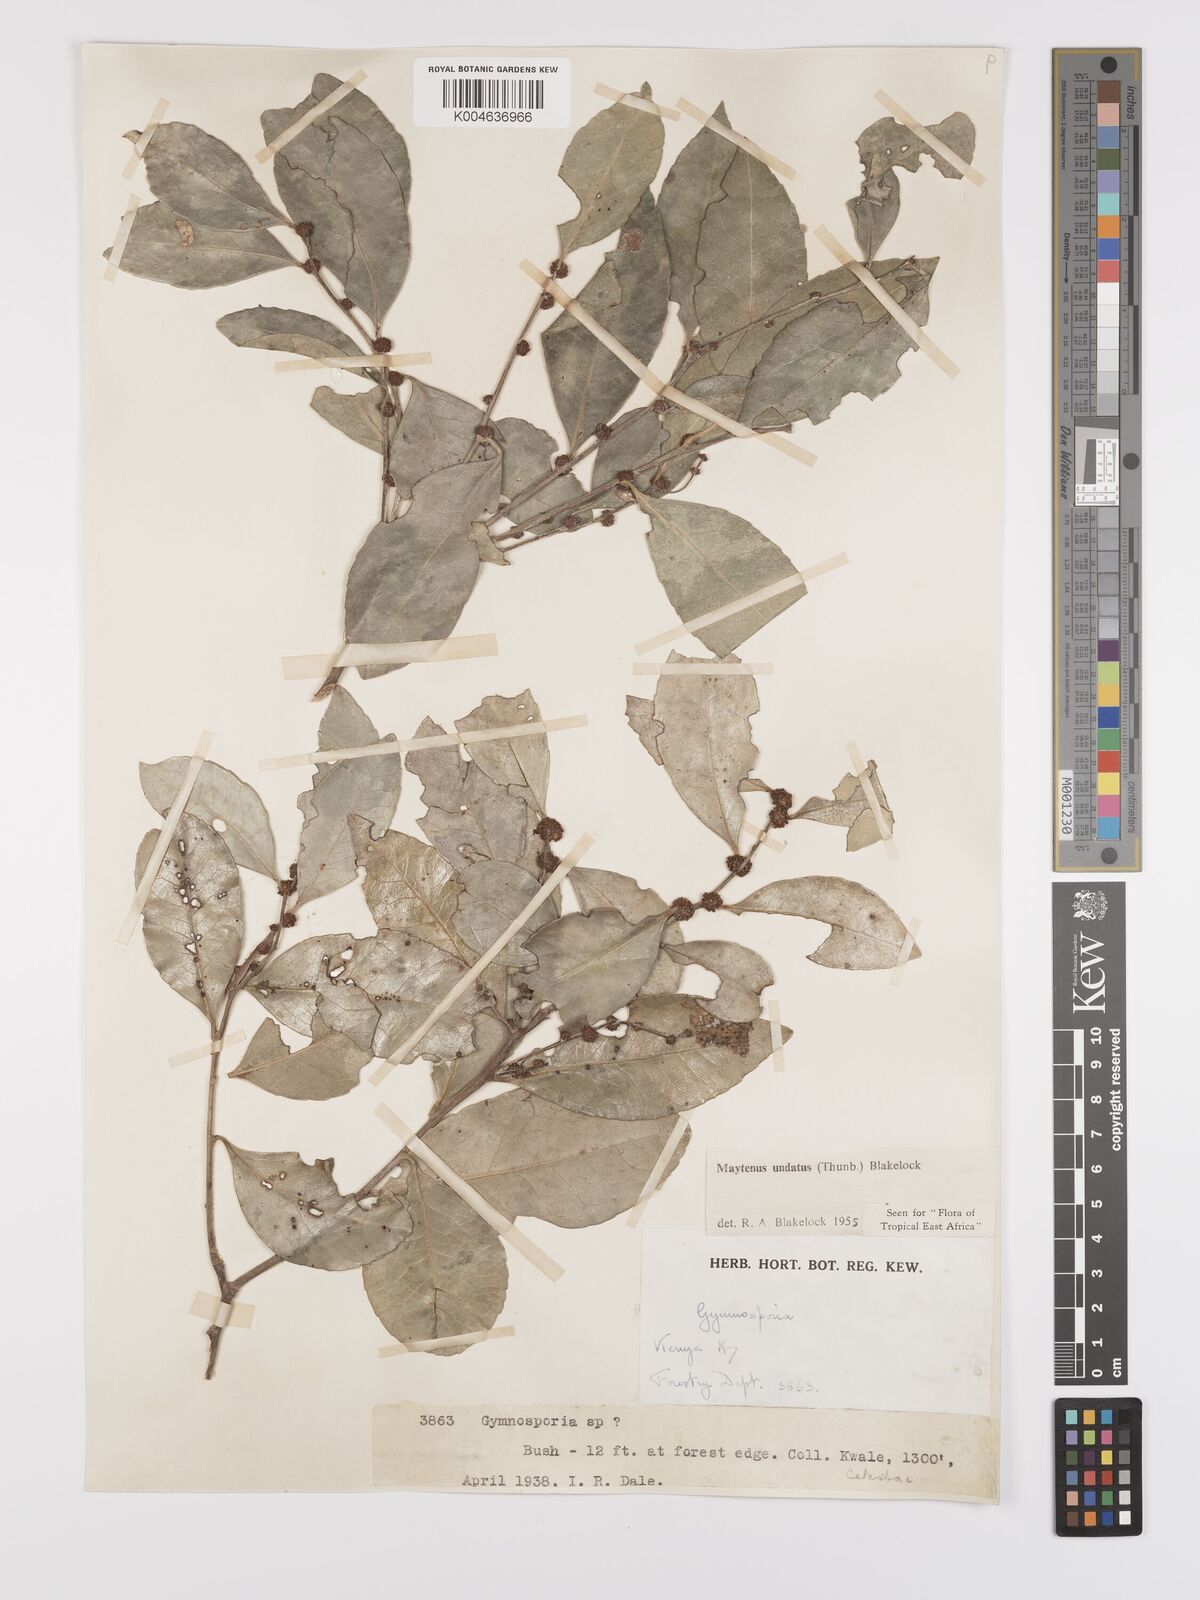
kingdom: Plantae
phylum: Tracheophyta
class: Magnoliopsida
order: Celastrales
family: Celastraceae
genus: Gymnosporia
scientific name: Gymnosporia undata
